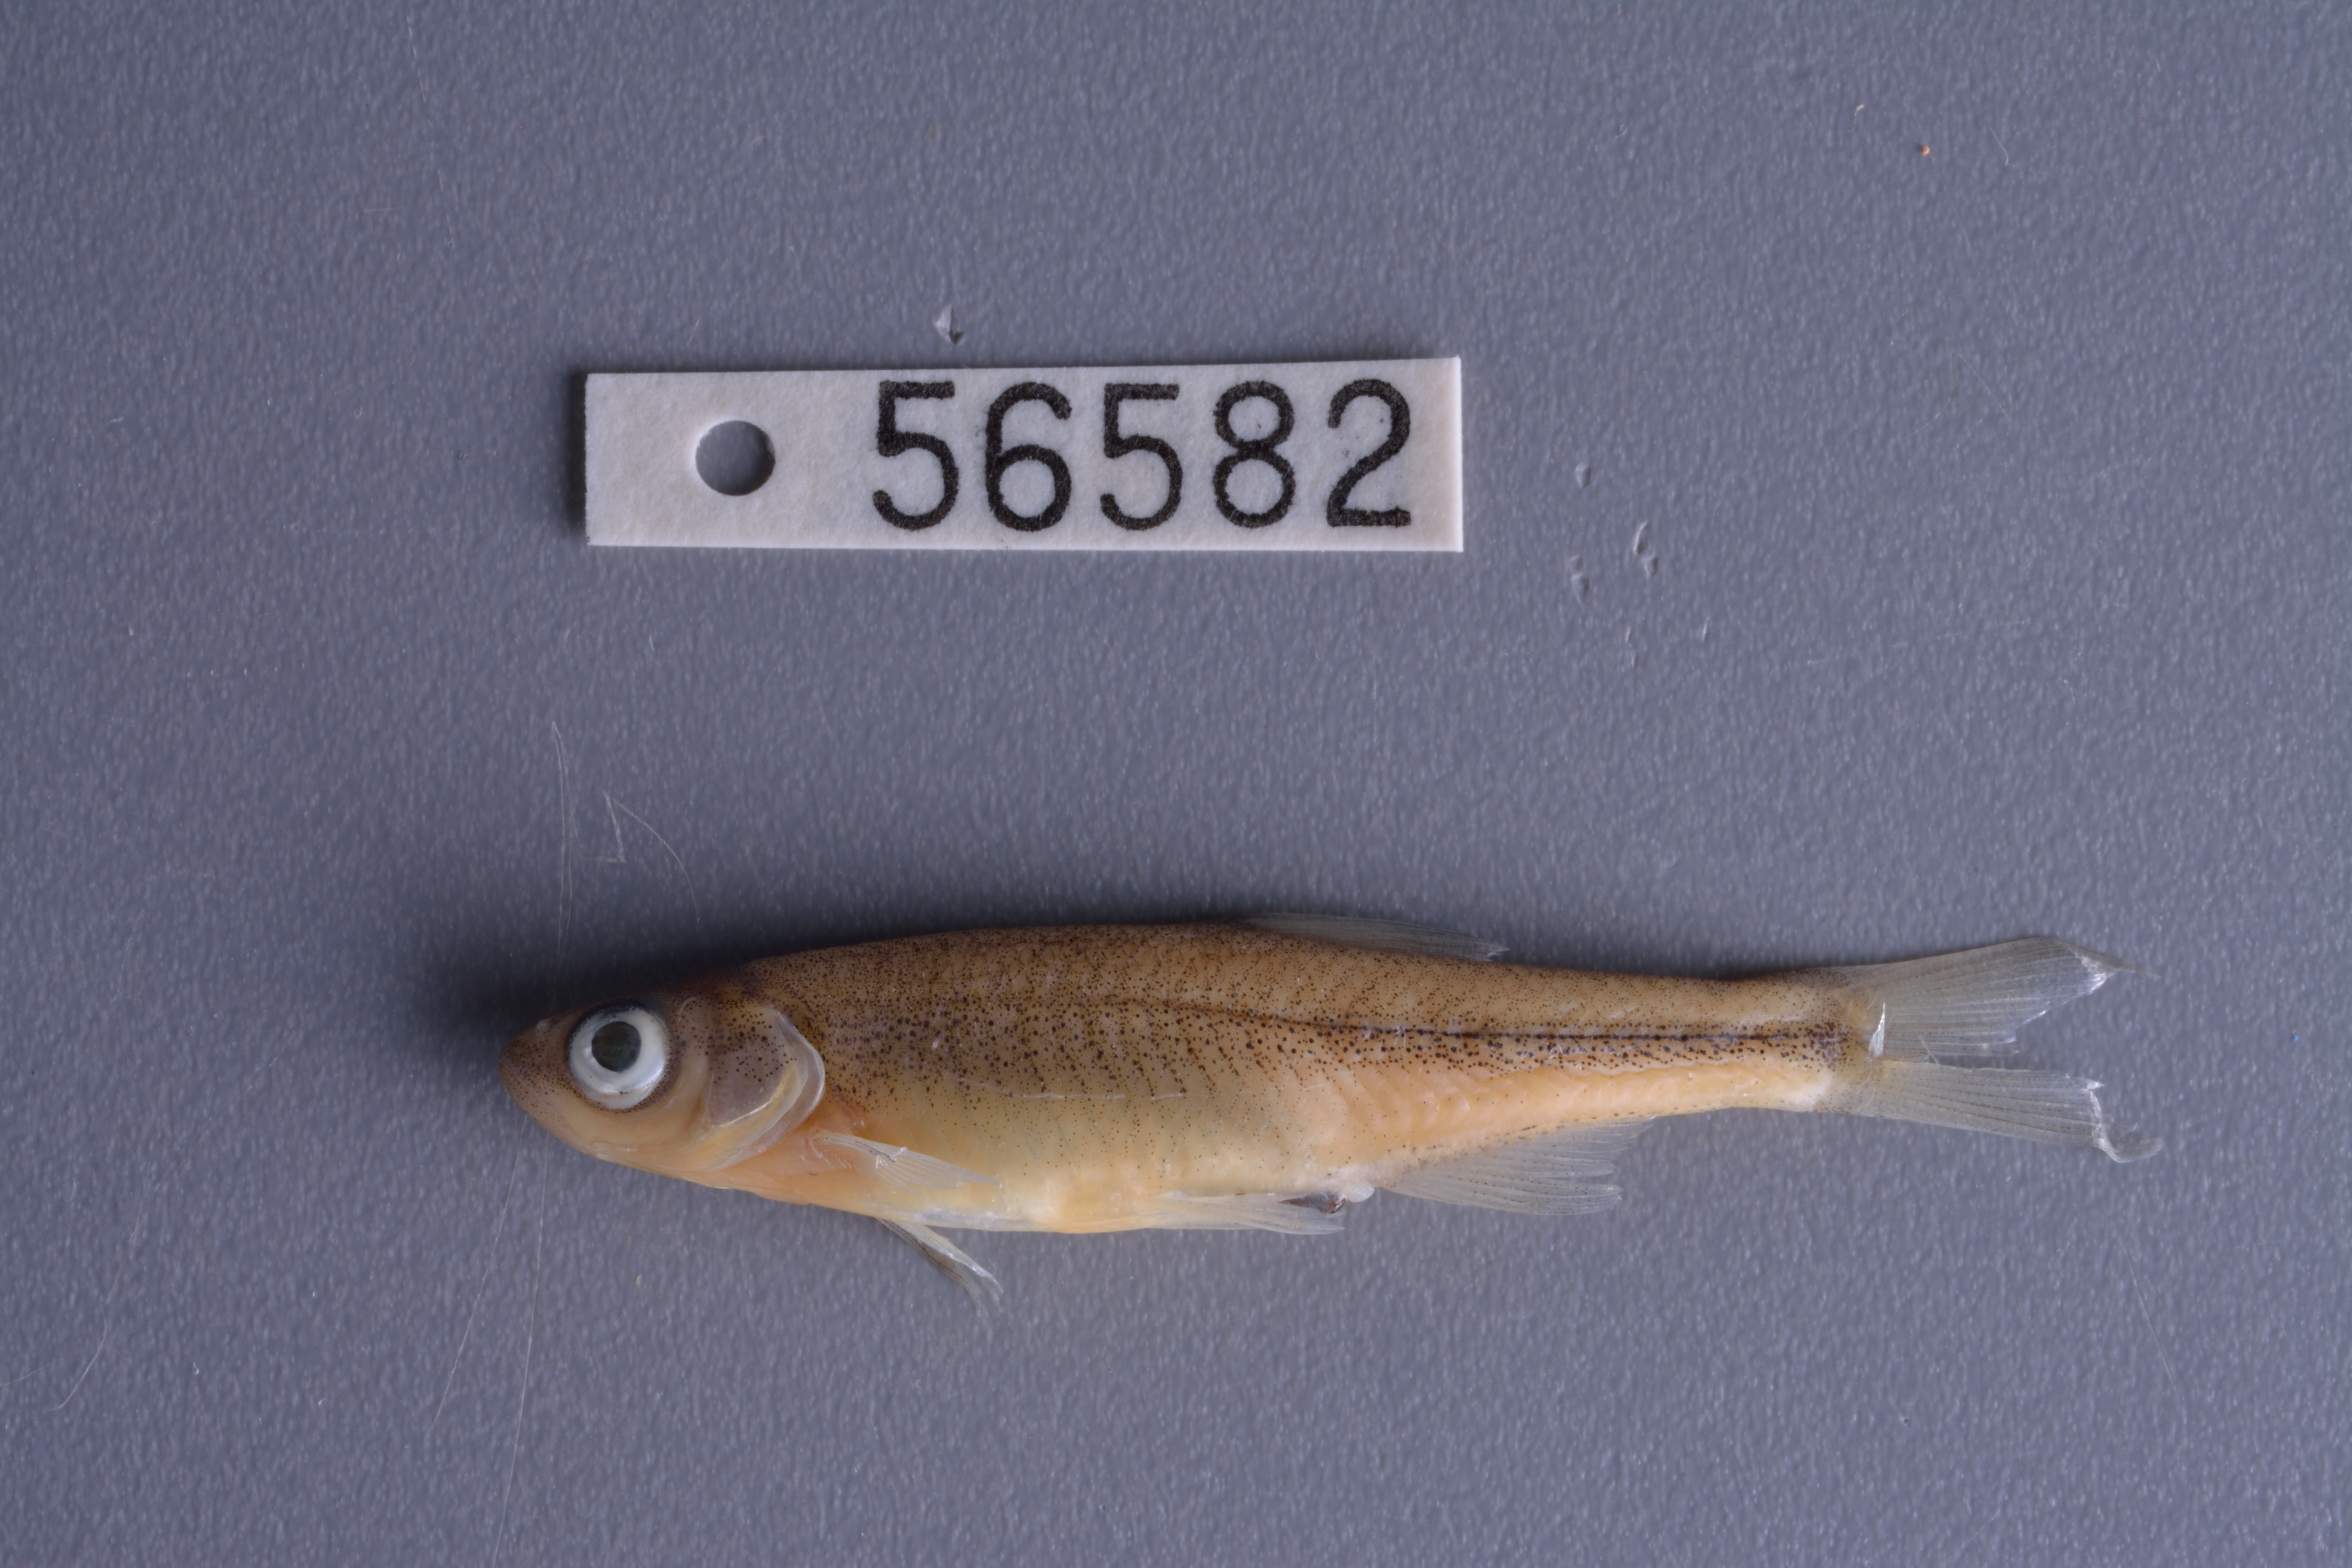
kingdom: Animalia
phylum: Chordata
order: Cypriniformes
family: Cyprinidae
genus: Lythrurus
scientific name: Lythrurus fumeus
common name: Ribbon shiner
